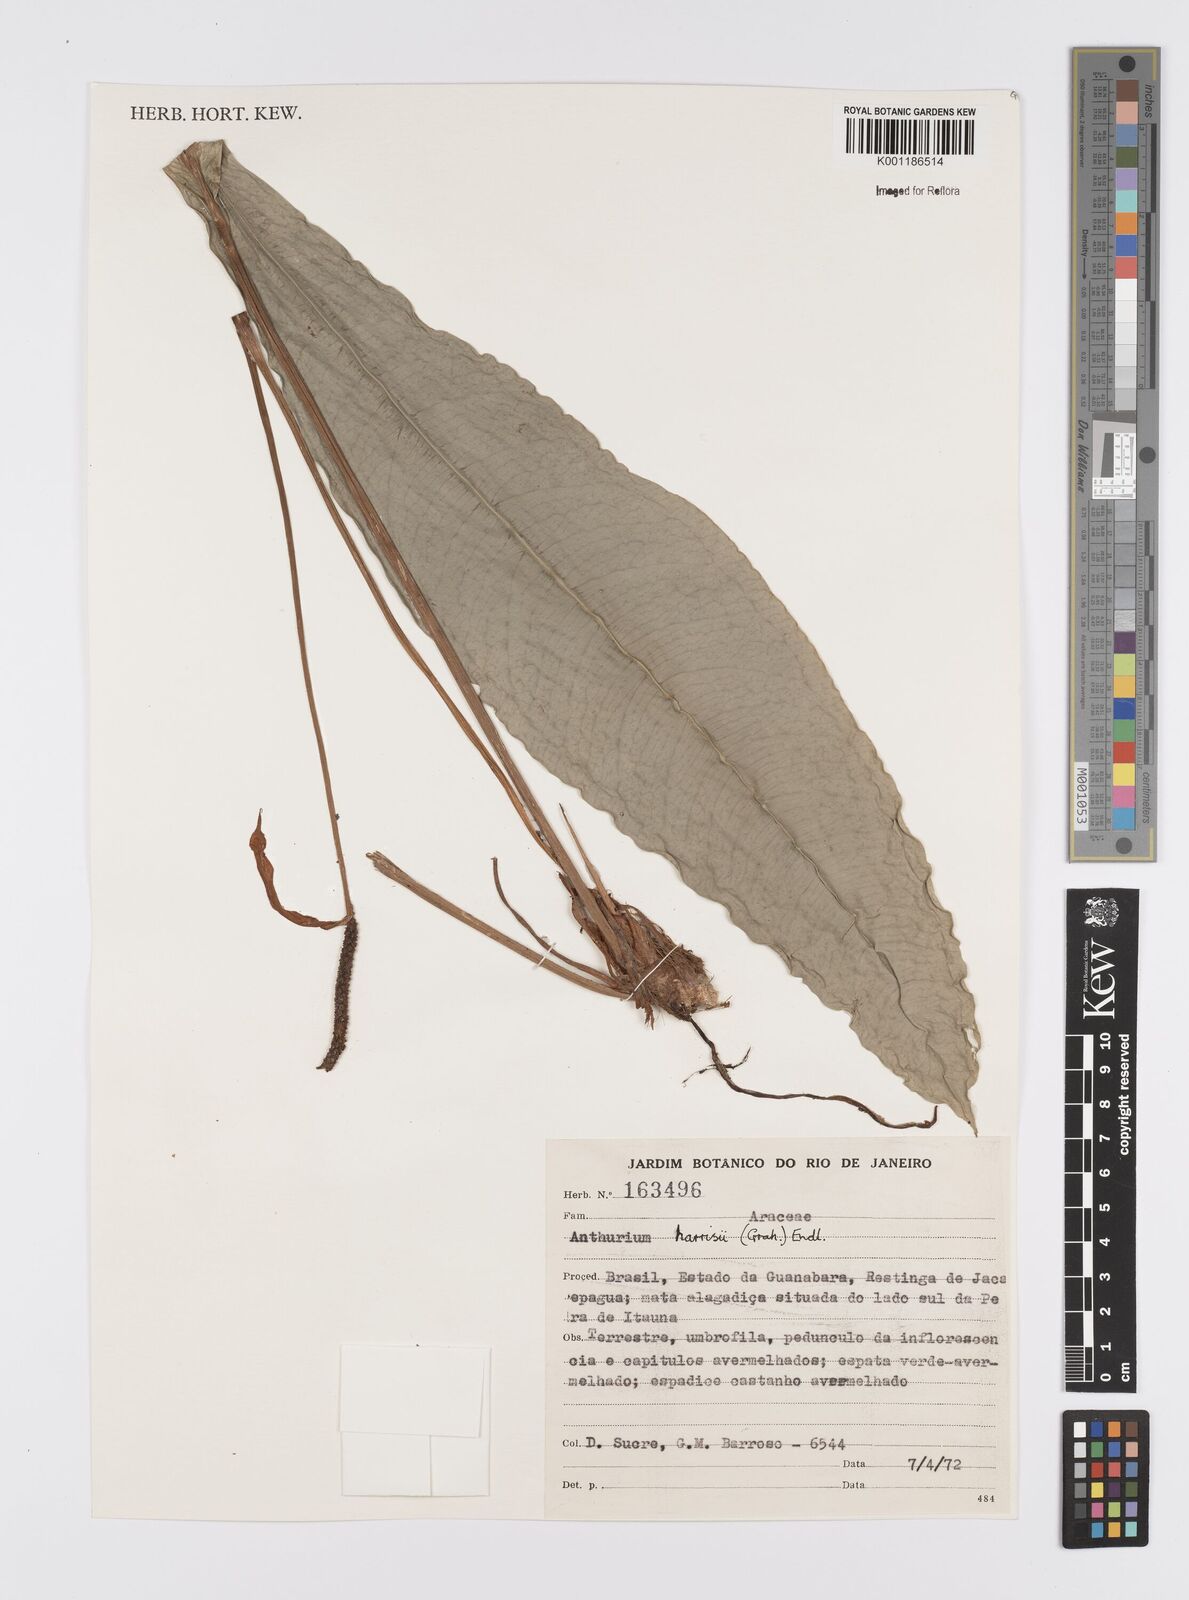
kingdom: Plantae
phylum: Tracheophyta
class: Liliopsida
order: Alismatales
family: Araceae
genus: Anthurium
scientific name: Anthurium harrisii
